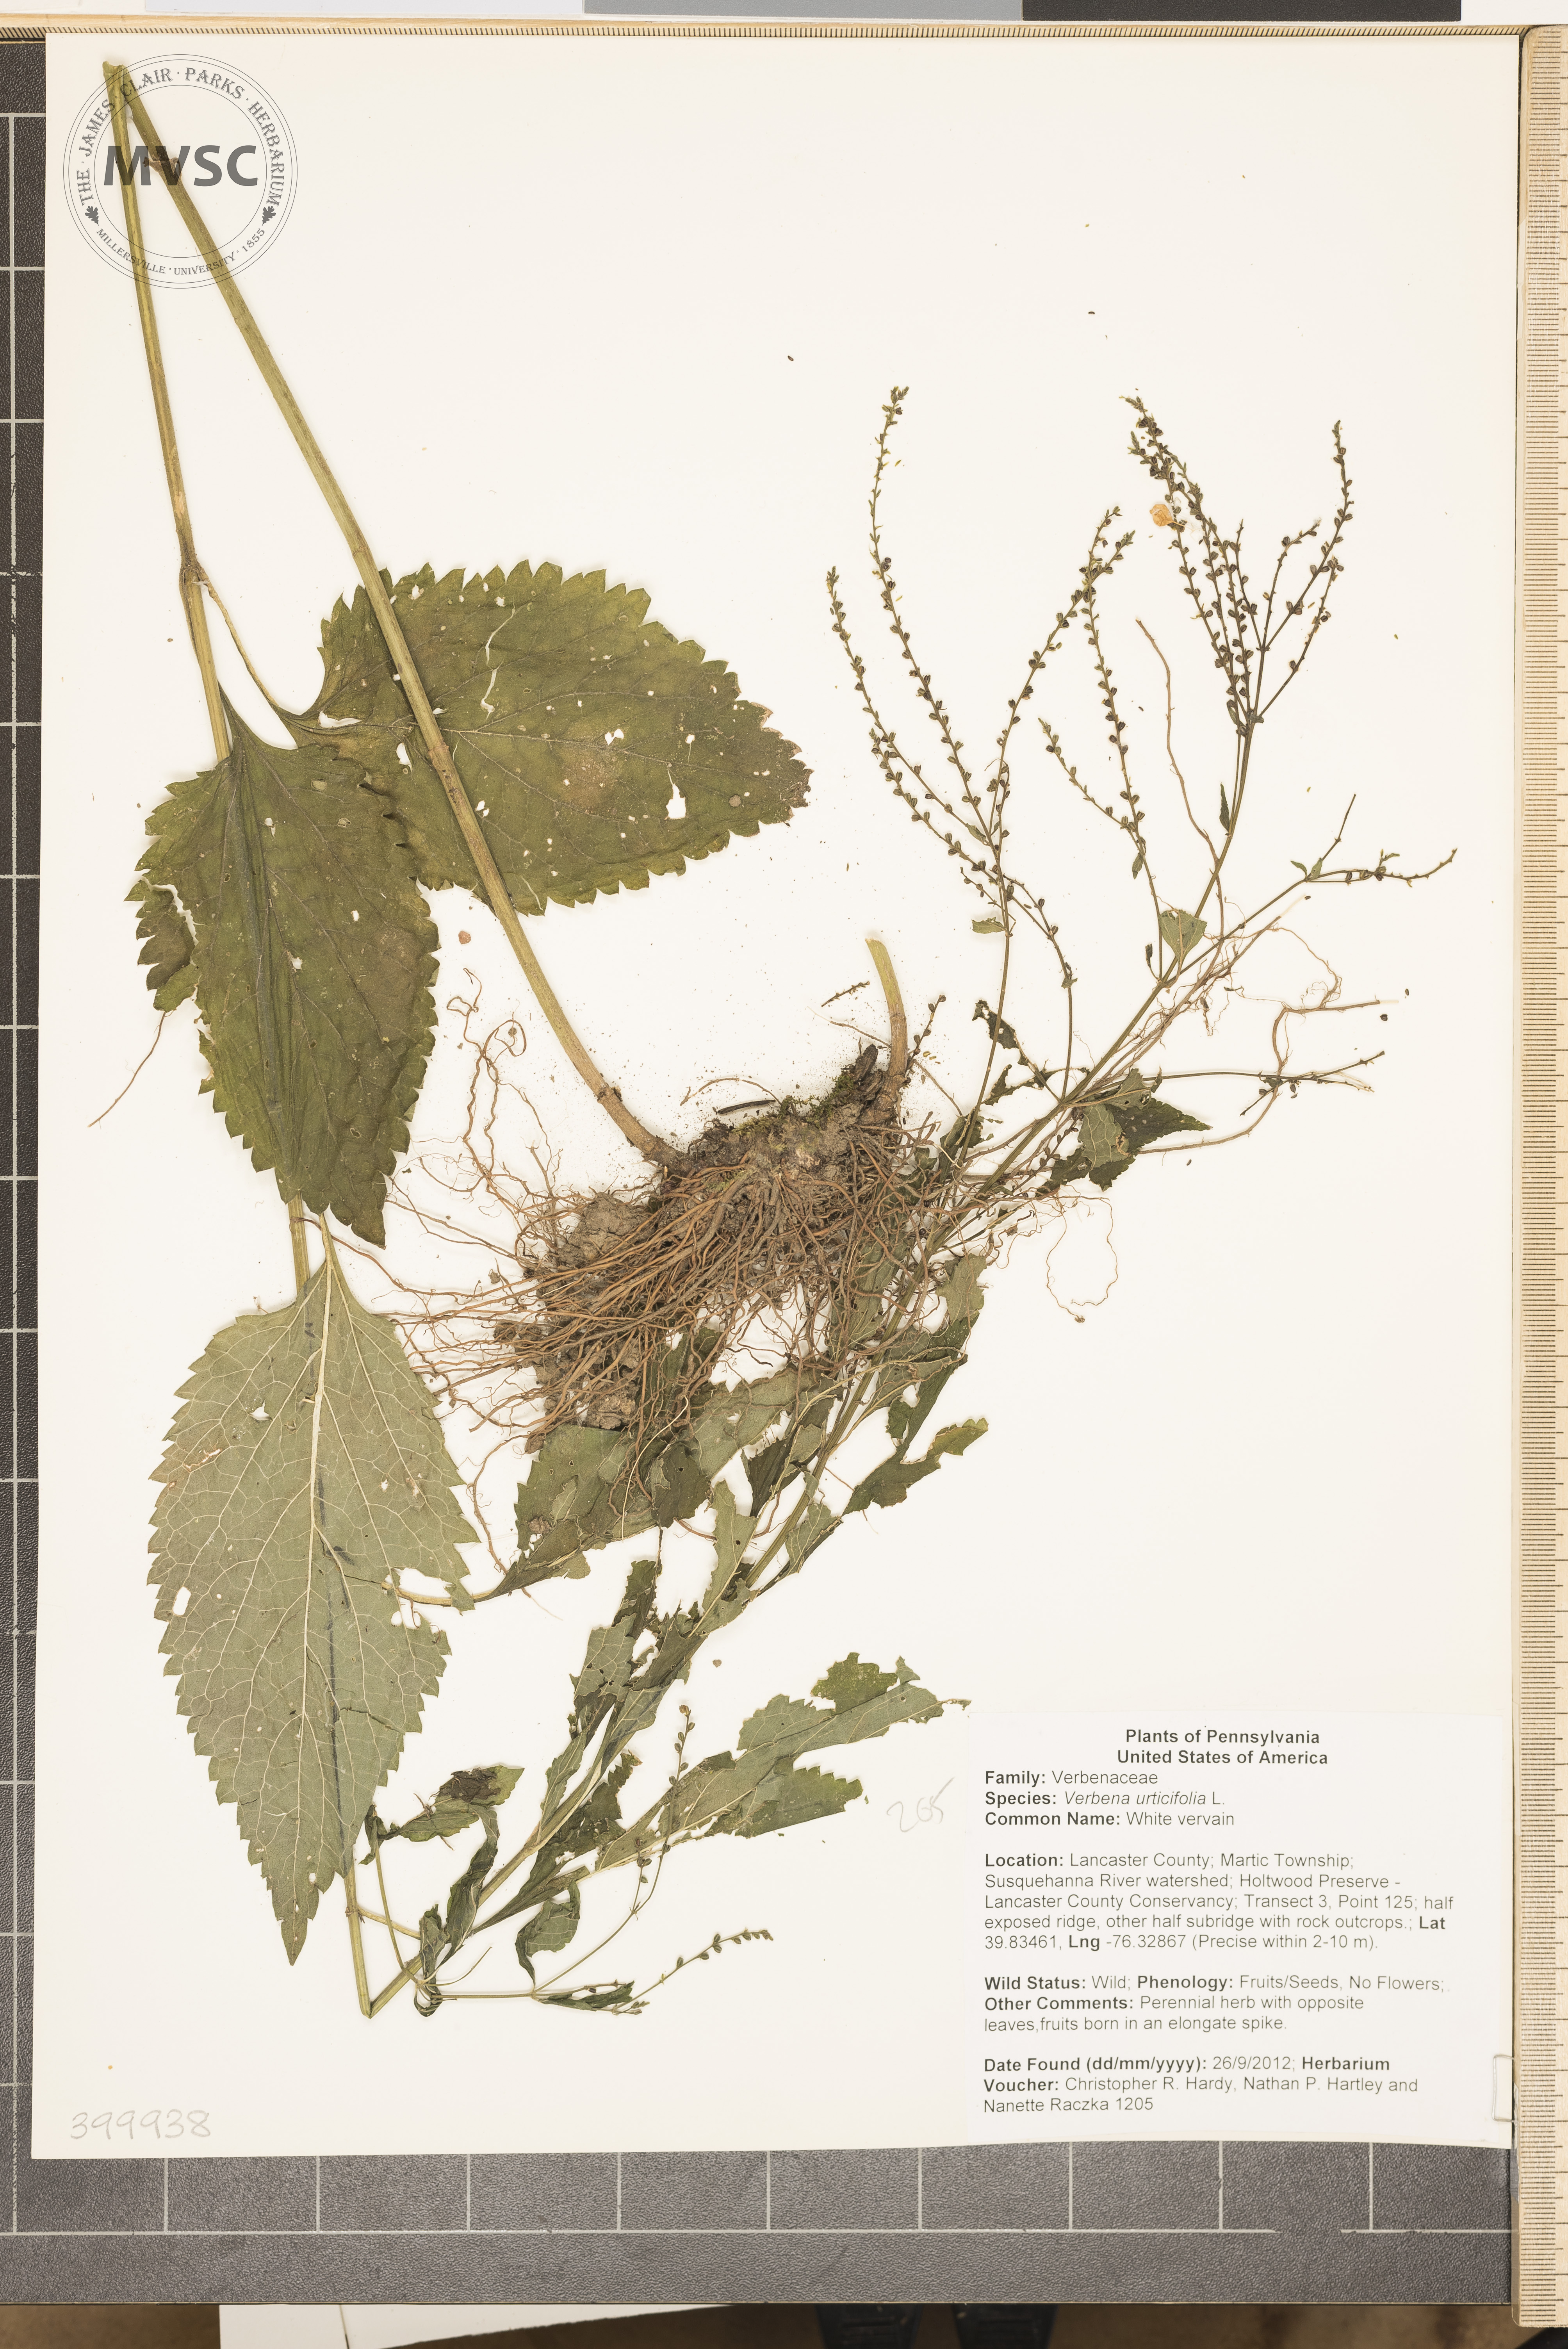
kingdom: Plantae
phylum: Tracheophyta
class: Magnoliopsida
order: Lamiales
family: Verbenaceae
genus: Verbena
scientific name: Verbena urticifolia
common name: White vervain
